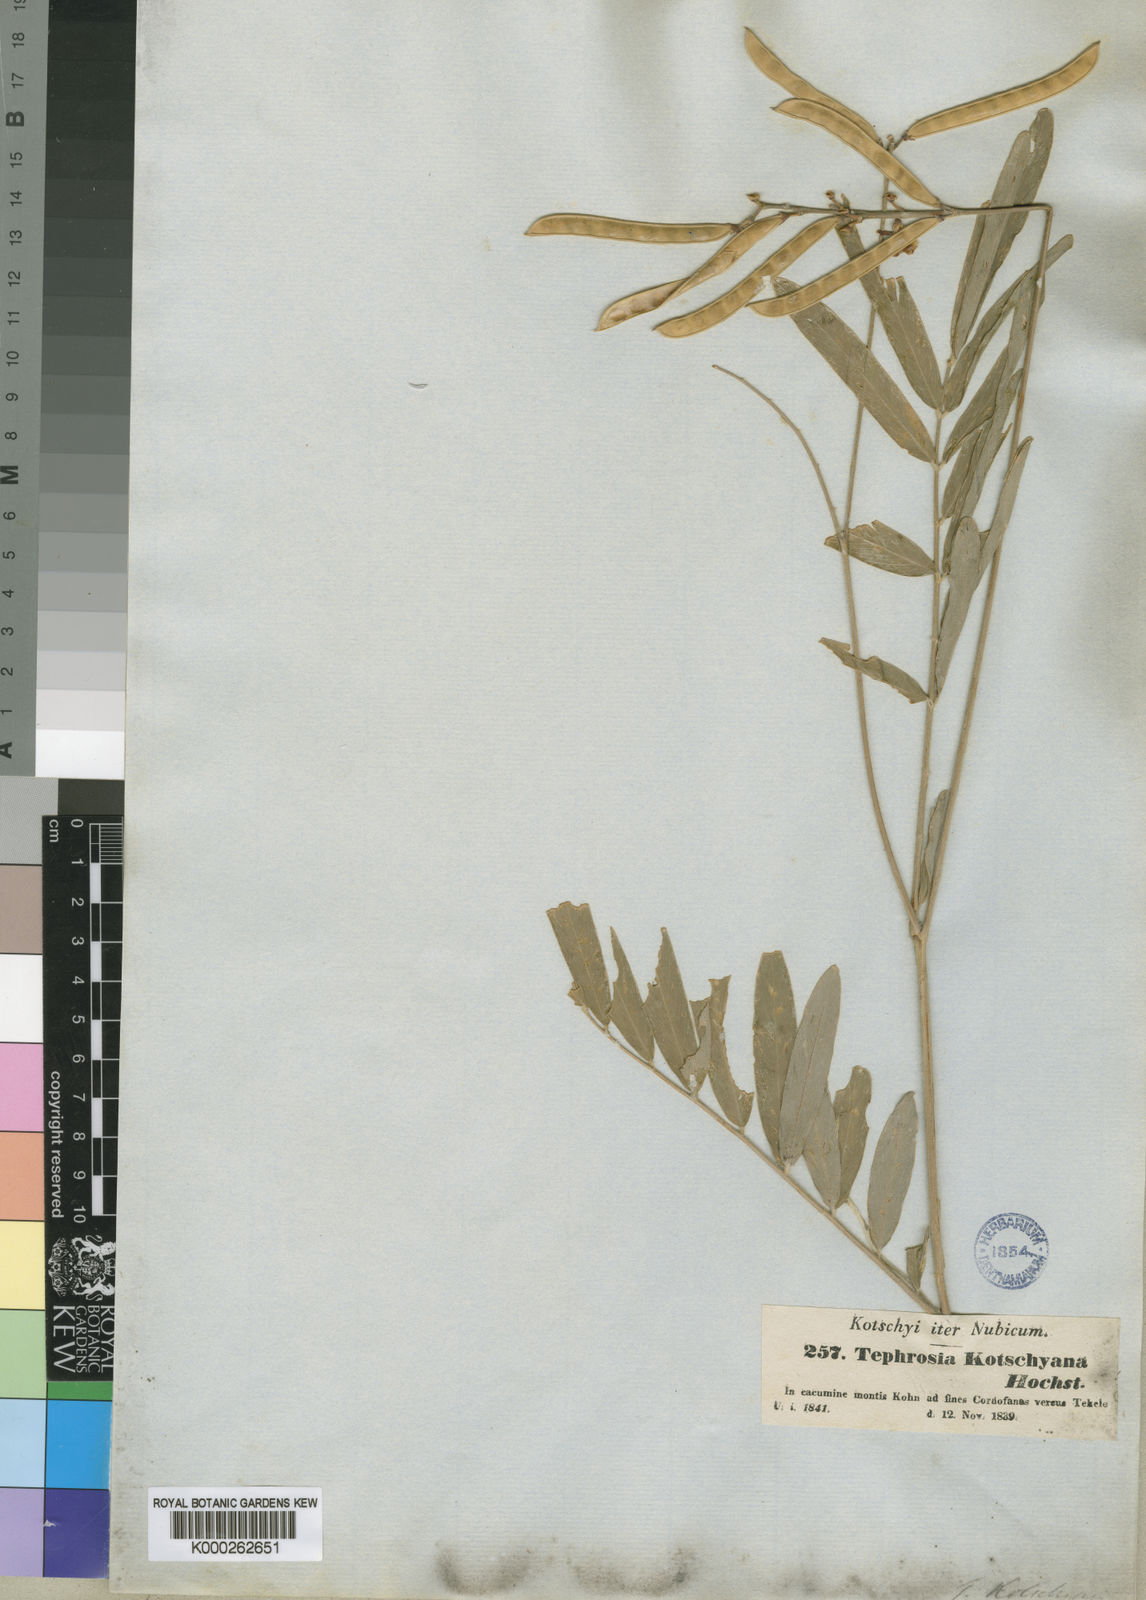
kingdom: Plantae
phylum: Tracheophyta
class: Magnoliopsida
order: Fabales
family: Fabaceae
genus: Tephrosia
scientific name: Tephrosia
